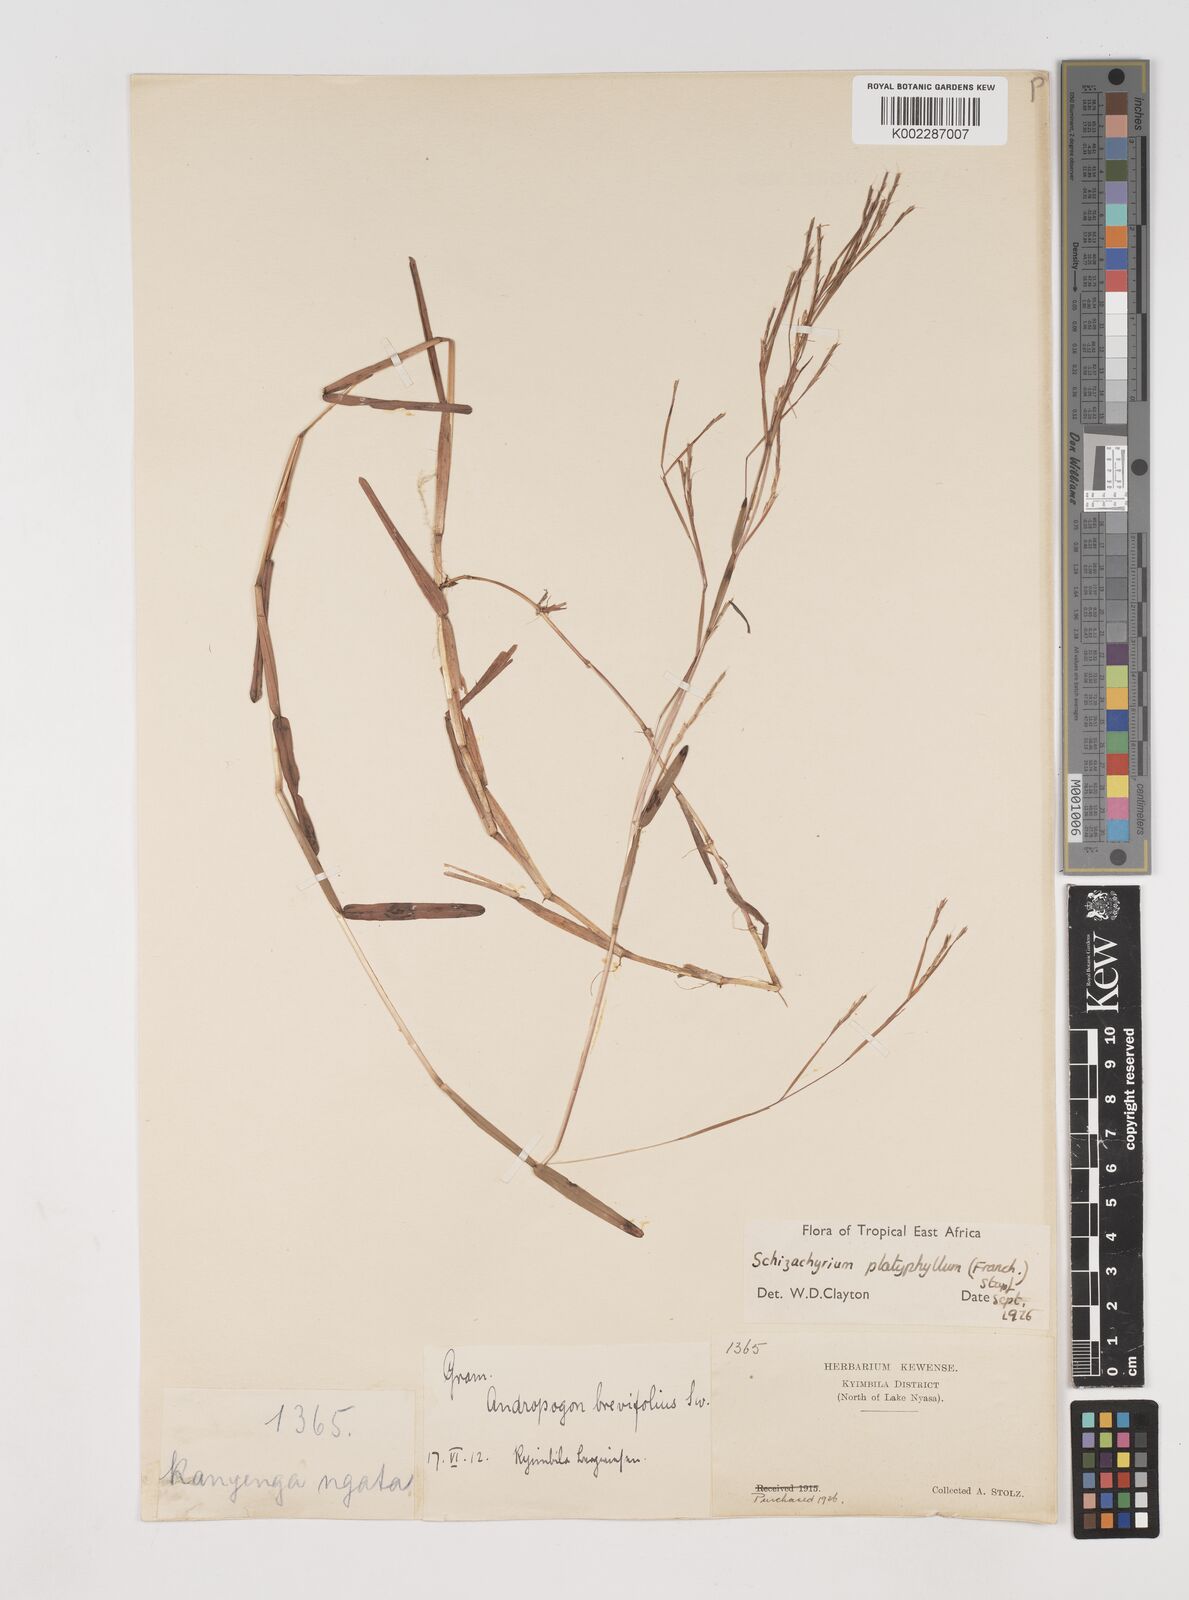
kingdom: Plantae
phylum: Tracheophyta
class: Liliopsida
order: Poales
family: Poaceae
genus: Schizachyrium
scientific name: Schizachyrium platyphyllum
